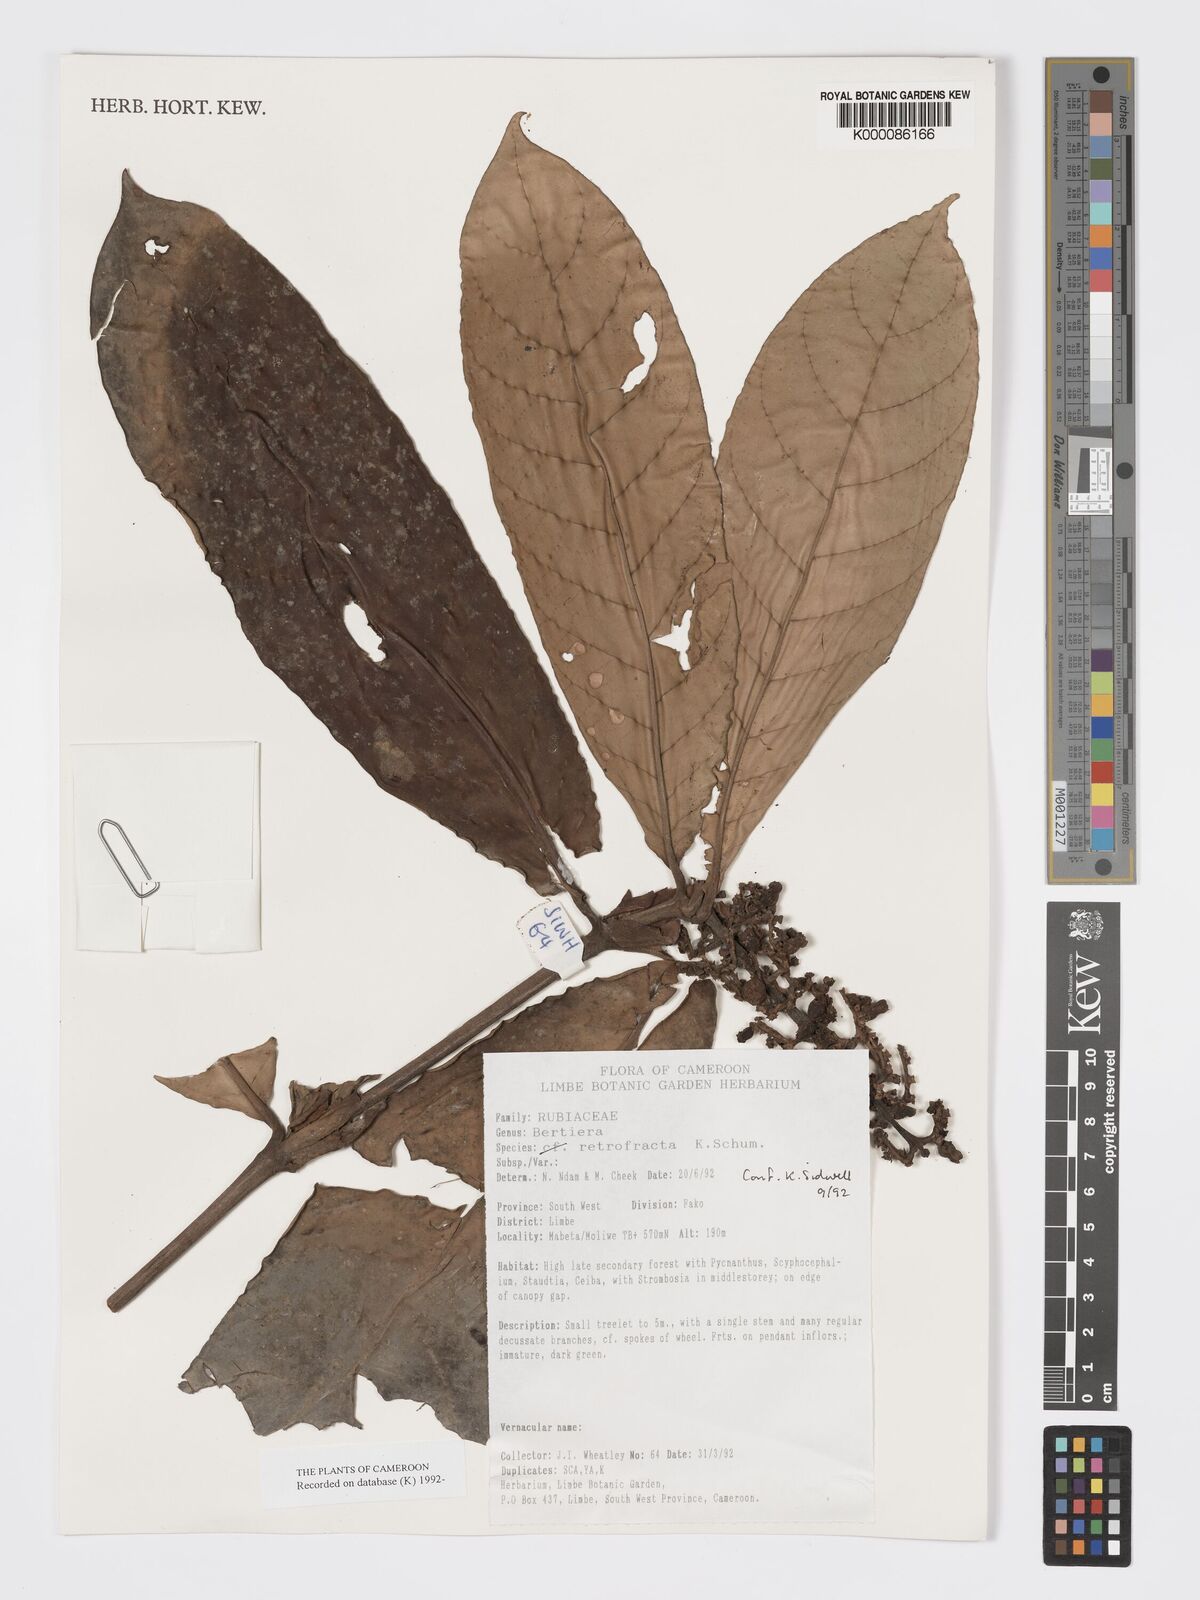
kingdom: Plantae
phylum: Tracheophyta
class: Magnoliopsida
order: Gentianales
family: Rubiaceae
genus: Bertiera
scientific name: Bertiera retrofracta
